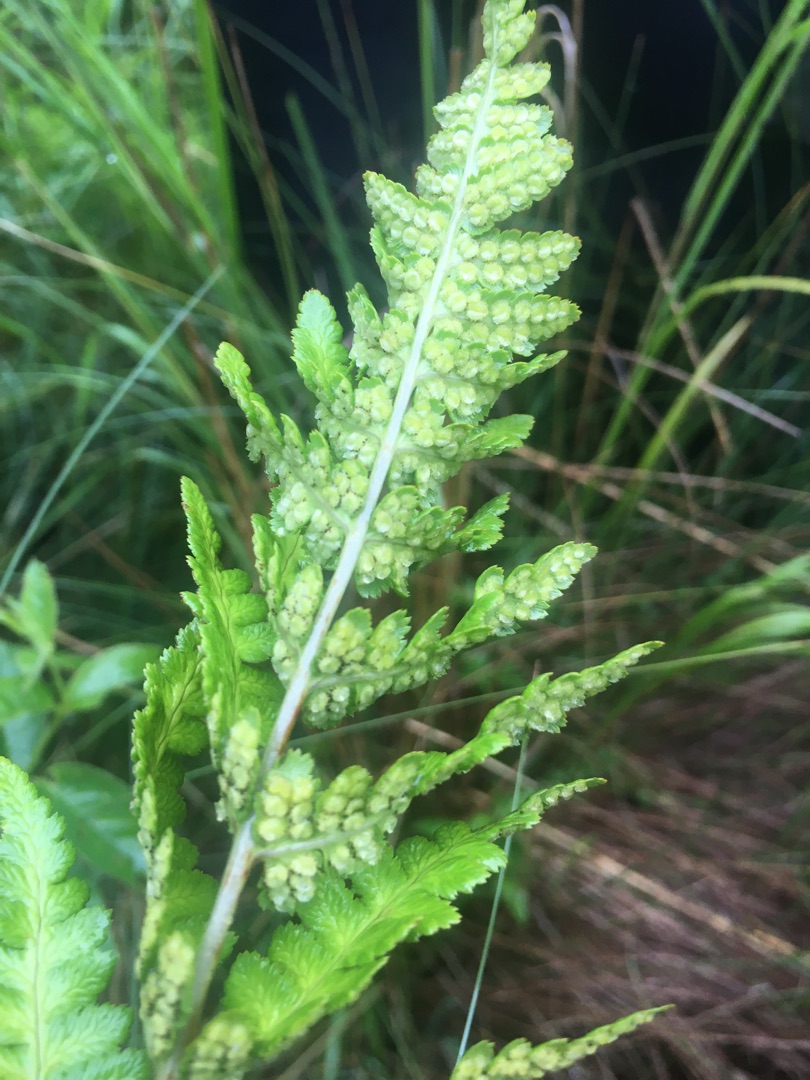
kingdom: Plantae
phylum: Tracheophyta
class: Polypodiopsida
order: Polypodiales
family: Dryopteridaceae
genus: Dryopteris
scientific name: Dryopteris cristata
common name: Butfinnet mangeløv
